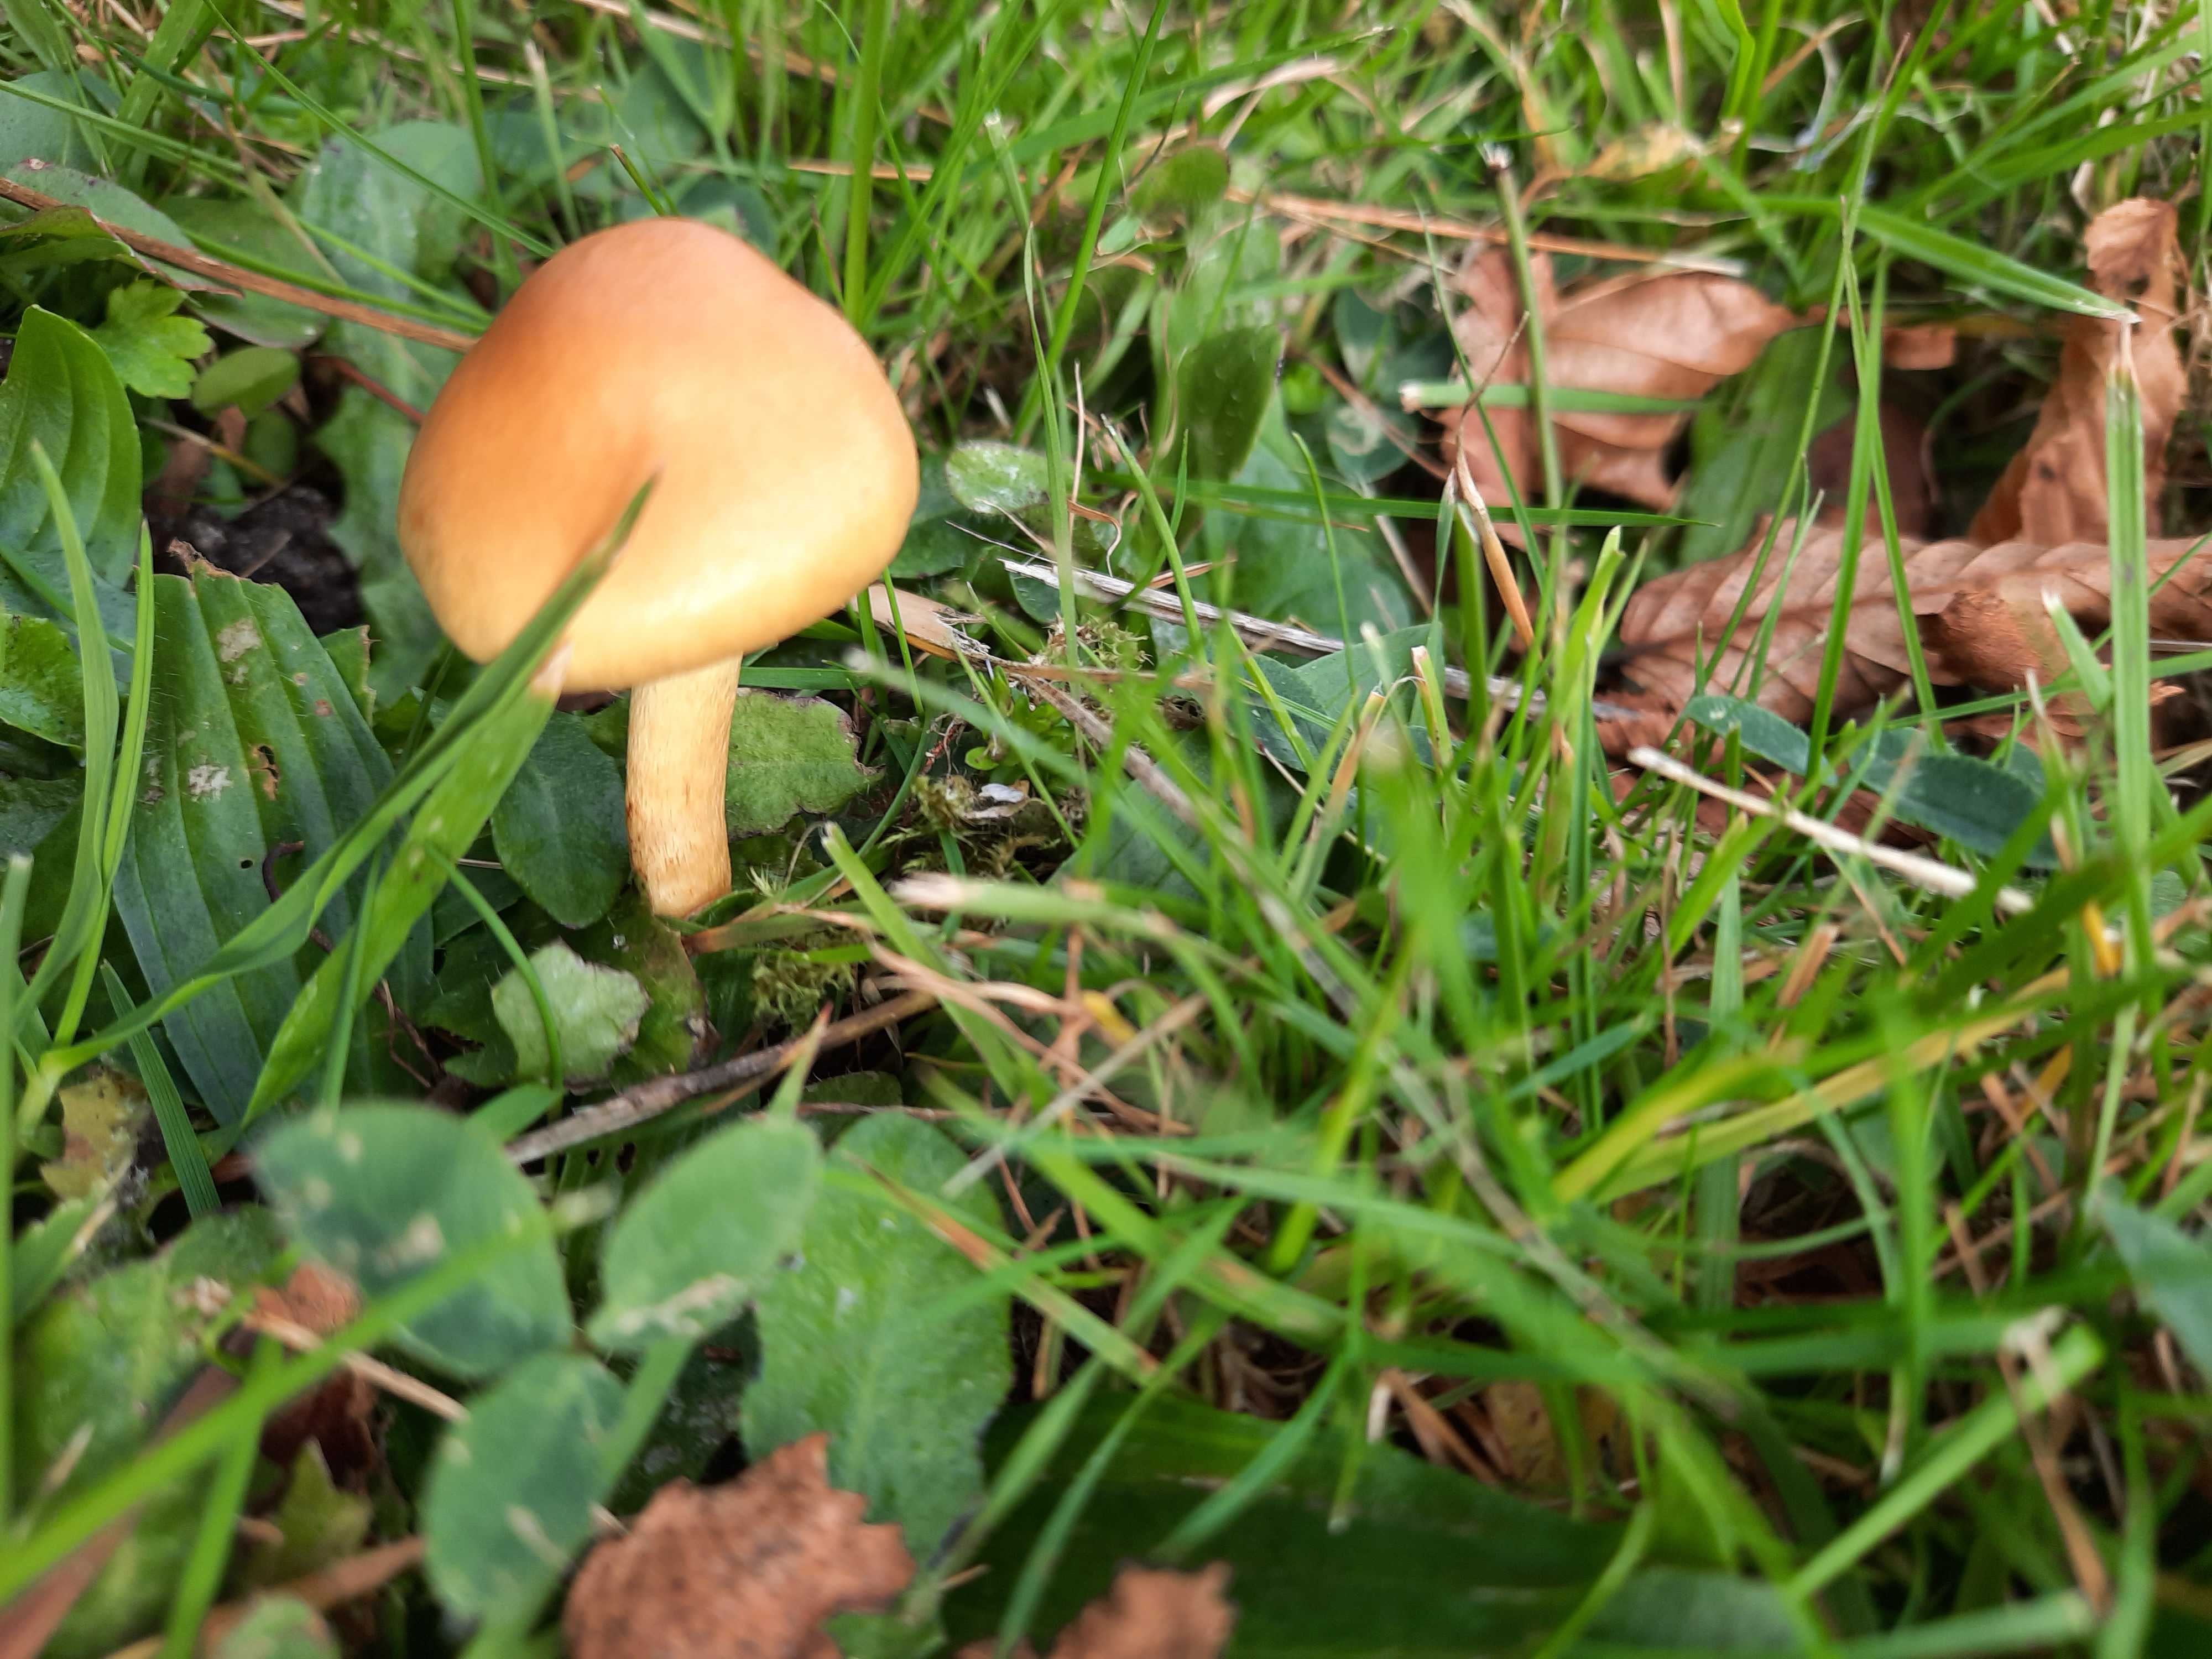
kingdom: Fungi
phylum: Basidiomycota
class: Agaricomycetes
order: Agaricales
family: Strophariaceae
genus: Hypholoma
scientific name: Hypholoma fasciculare
